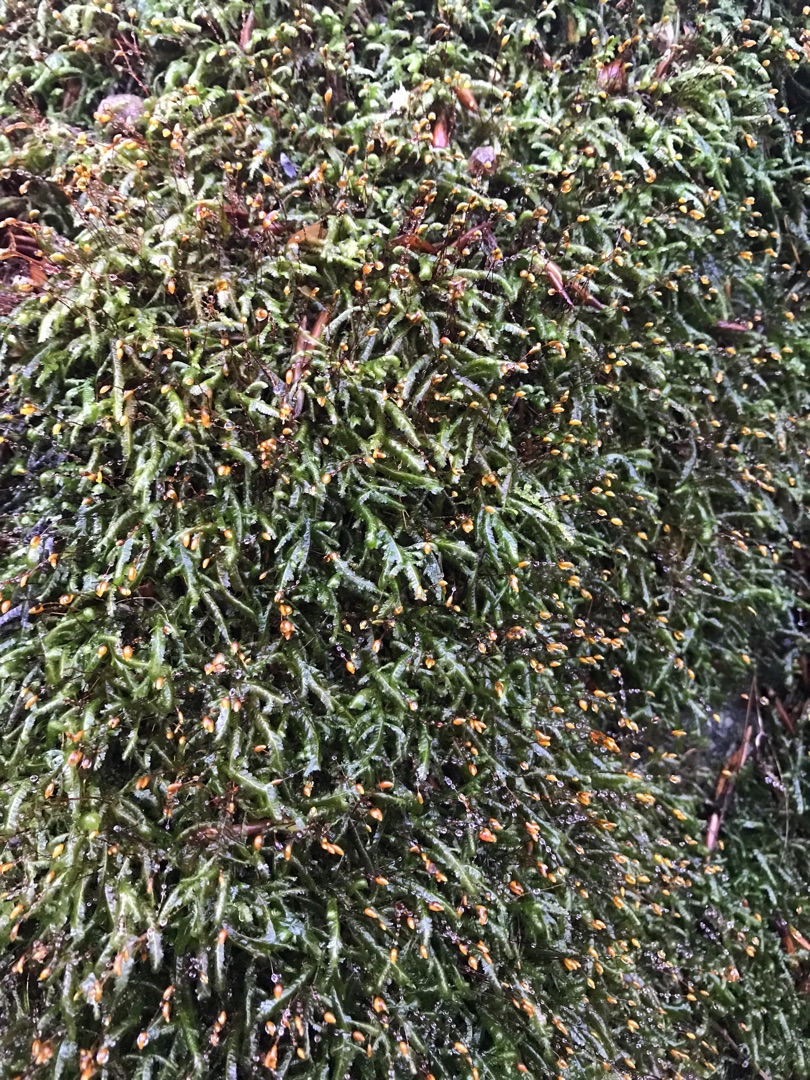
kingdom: Plantae
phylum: Bryophyta
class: Bryopsida
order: Hypnales
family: Neckeraceae
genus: Homalia
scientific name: Homalia trichomanoides
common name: Skov-tungemos
